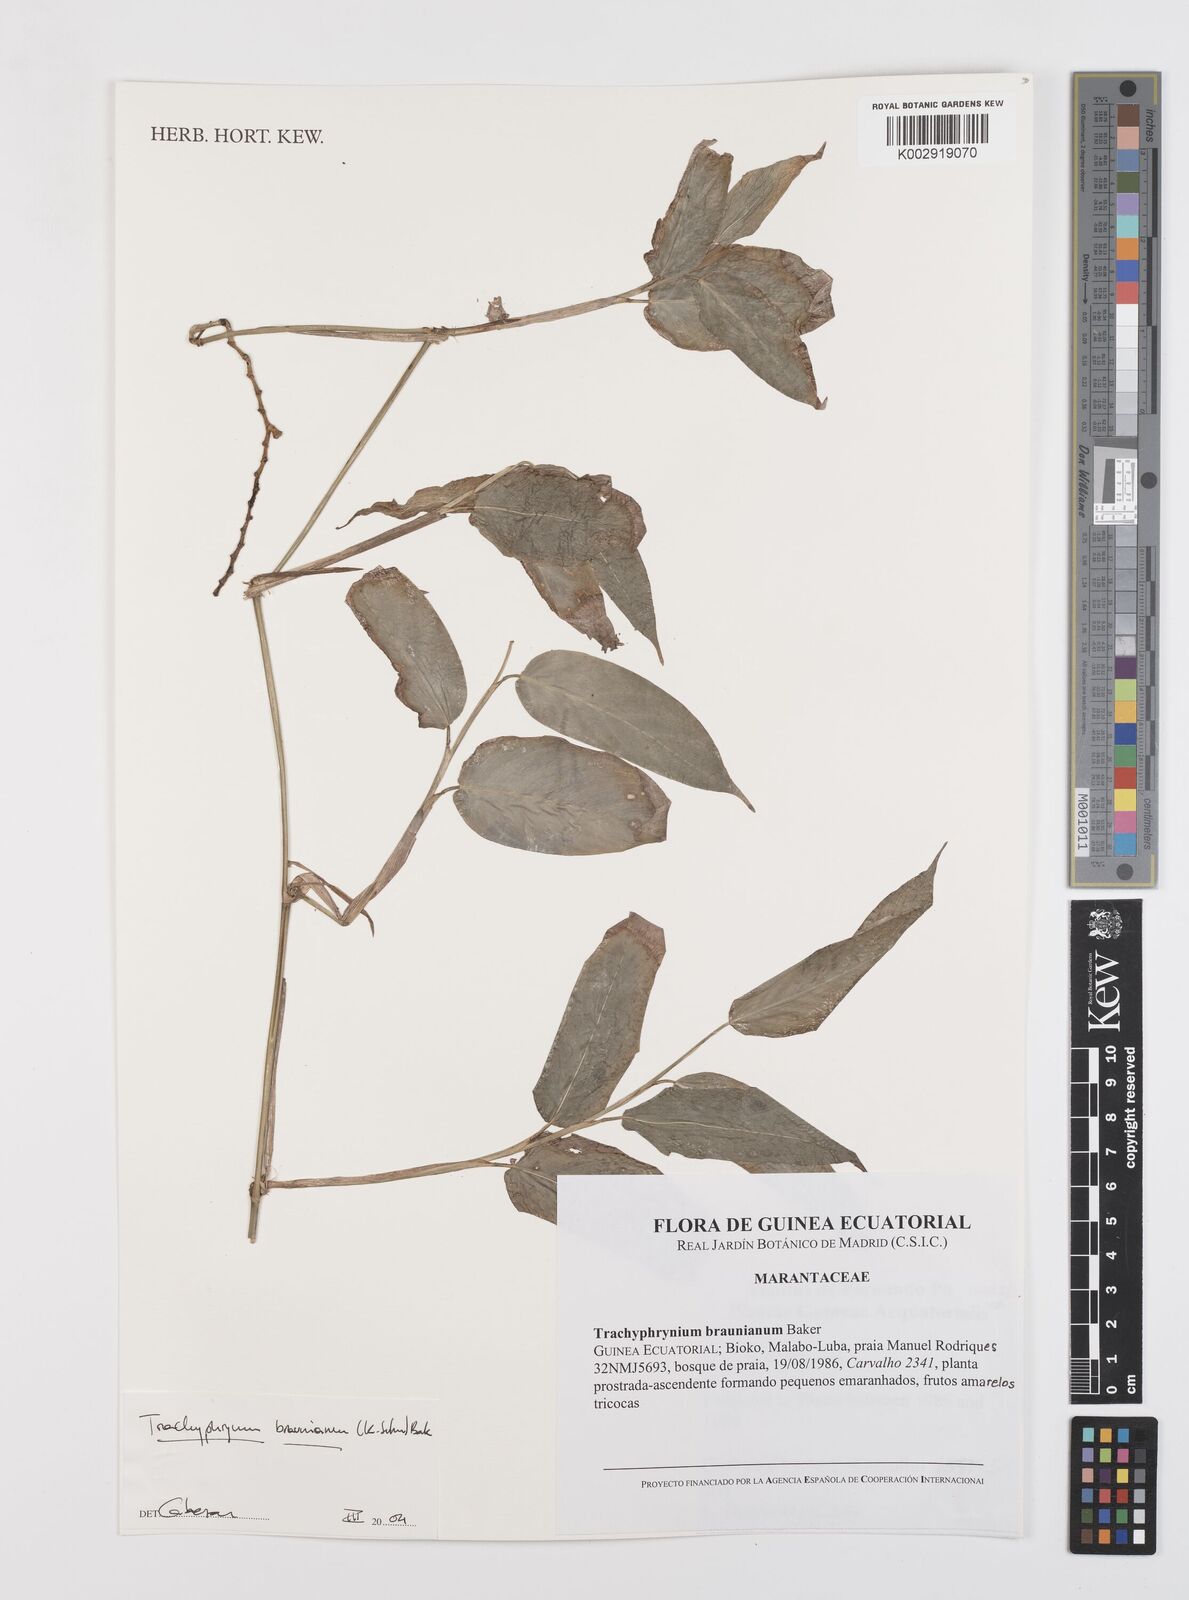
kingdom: Plantae
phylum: Tracheophyta
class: Liliopsida
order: Zingiberales
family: Marantaceae
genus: Trachyphrynium
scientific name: Trachyphrynium braunianum
